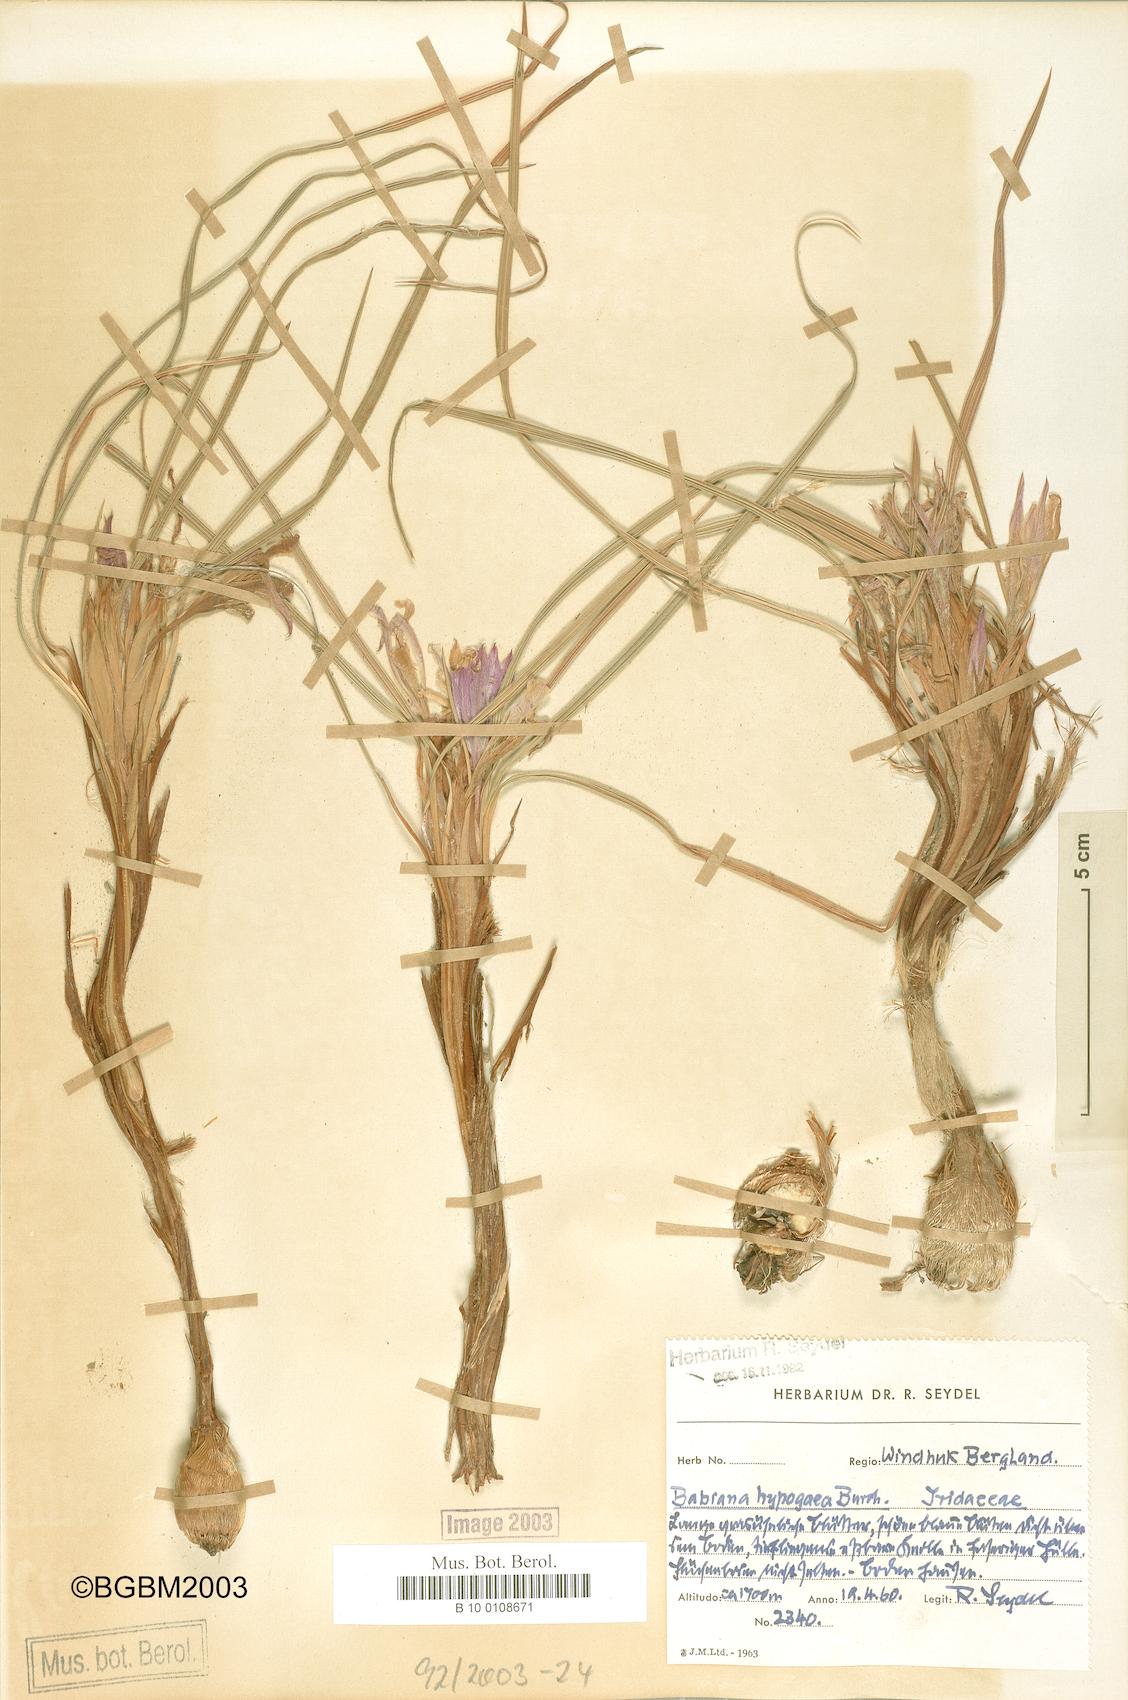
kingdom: Plantae
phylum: Tracheophyta
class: Liliopsida
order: Asparagales
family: Iridaceae
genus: Babiana
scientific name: Babiana hypogaea
